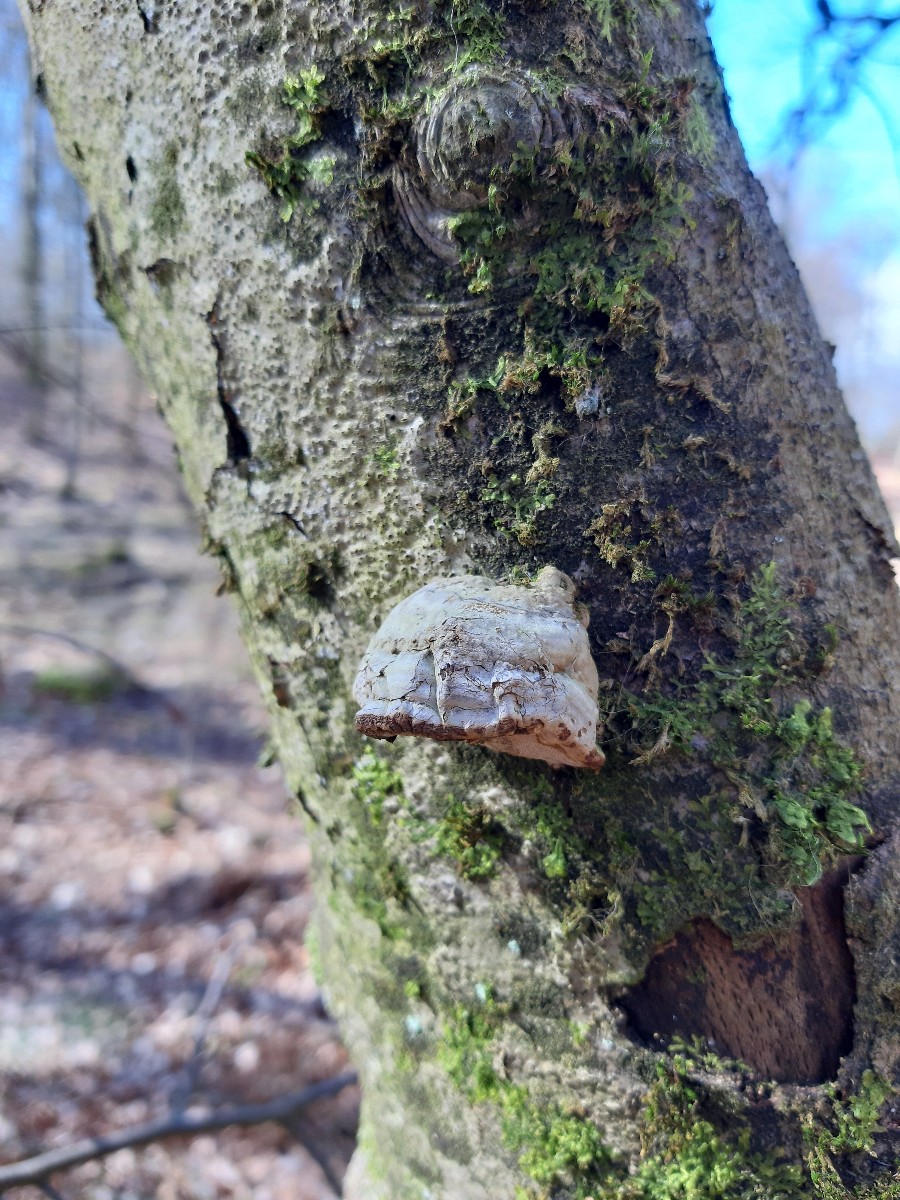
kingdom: Fungi
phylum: Basidiomycota
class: Agaricomycetes
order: Polyporales
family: Polyporaceae
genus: Fomes
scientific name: Fomes fomentarius
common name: tøndersvamp
